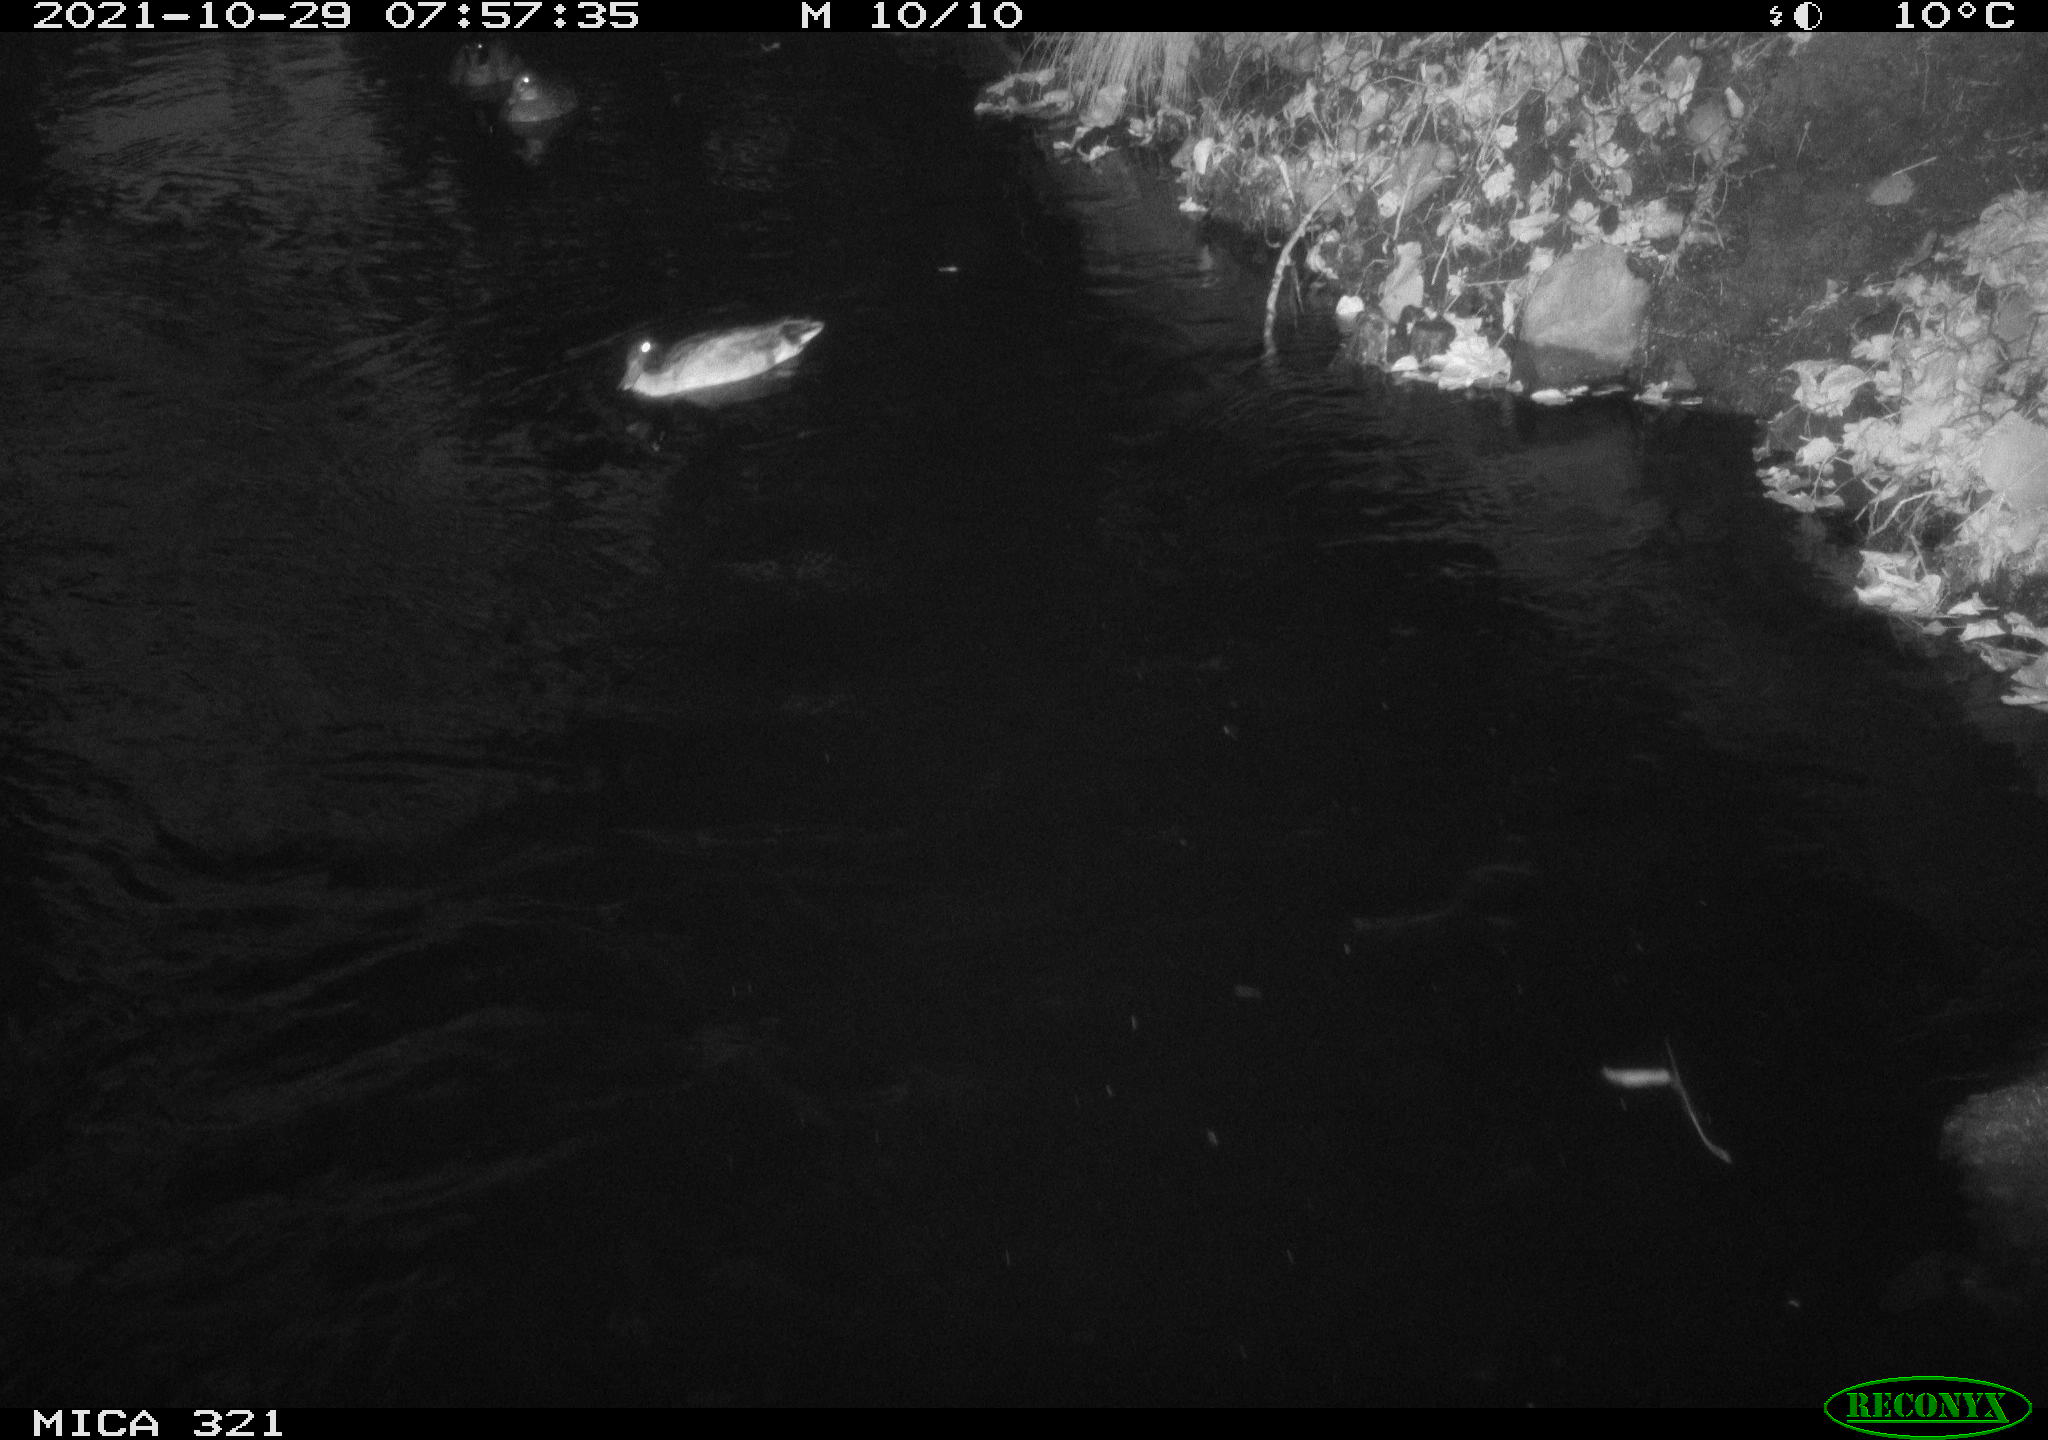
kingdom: Animalia
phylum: Chordata
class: Aves
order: Anseriformes
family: Anatidae
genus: Anas
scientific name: Anas platyrhynchos
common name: Mallard
